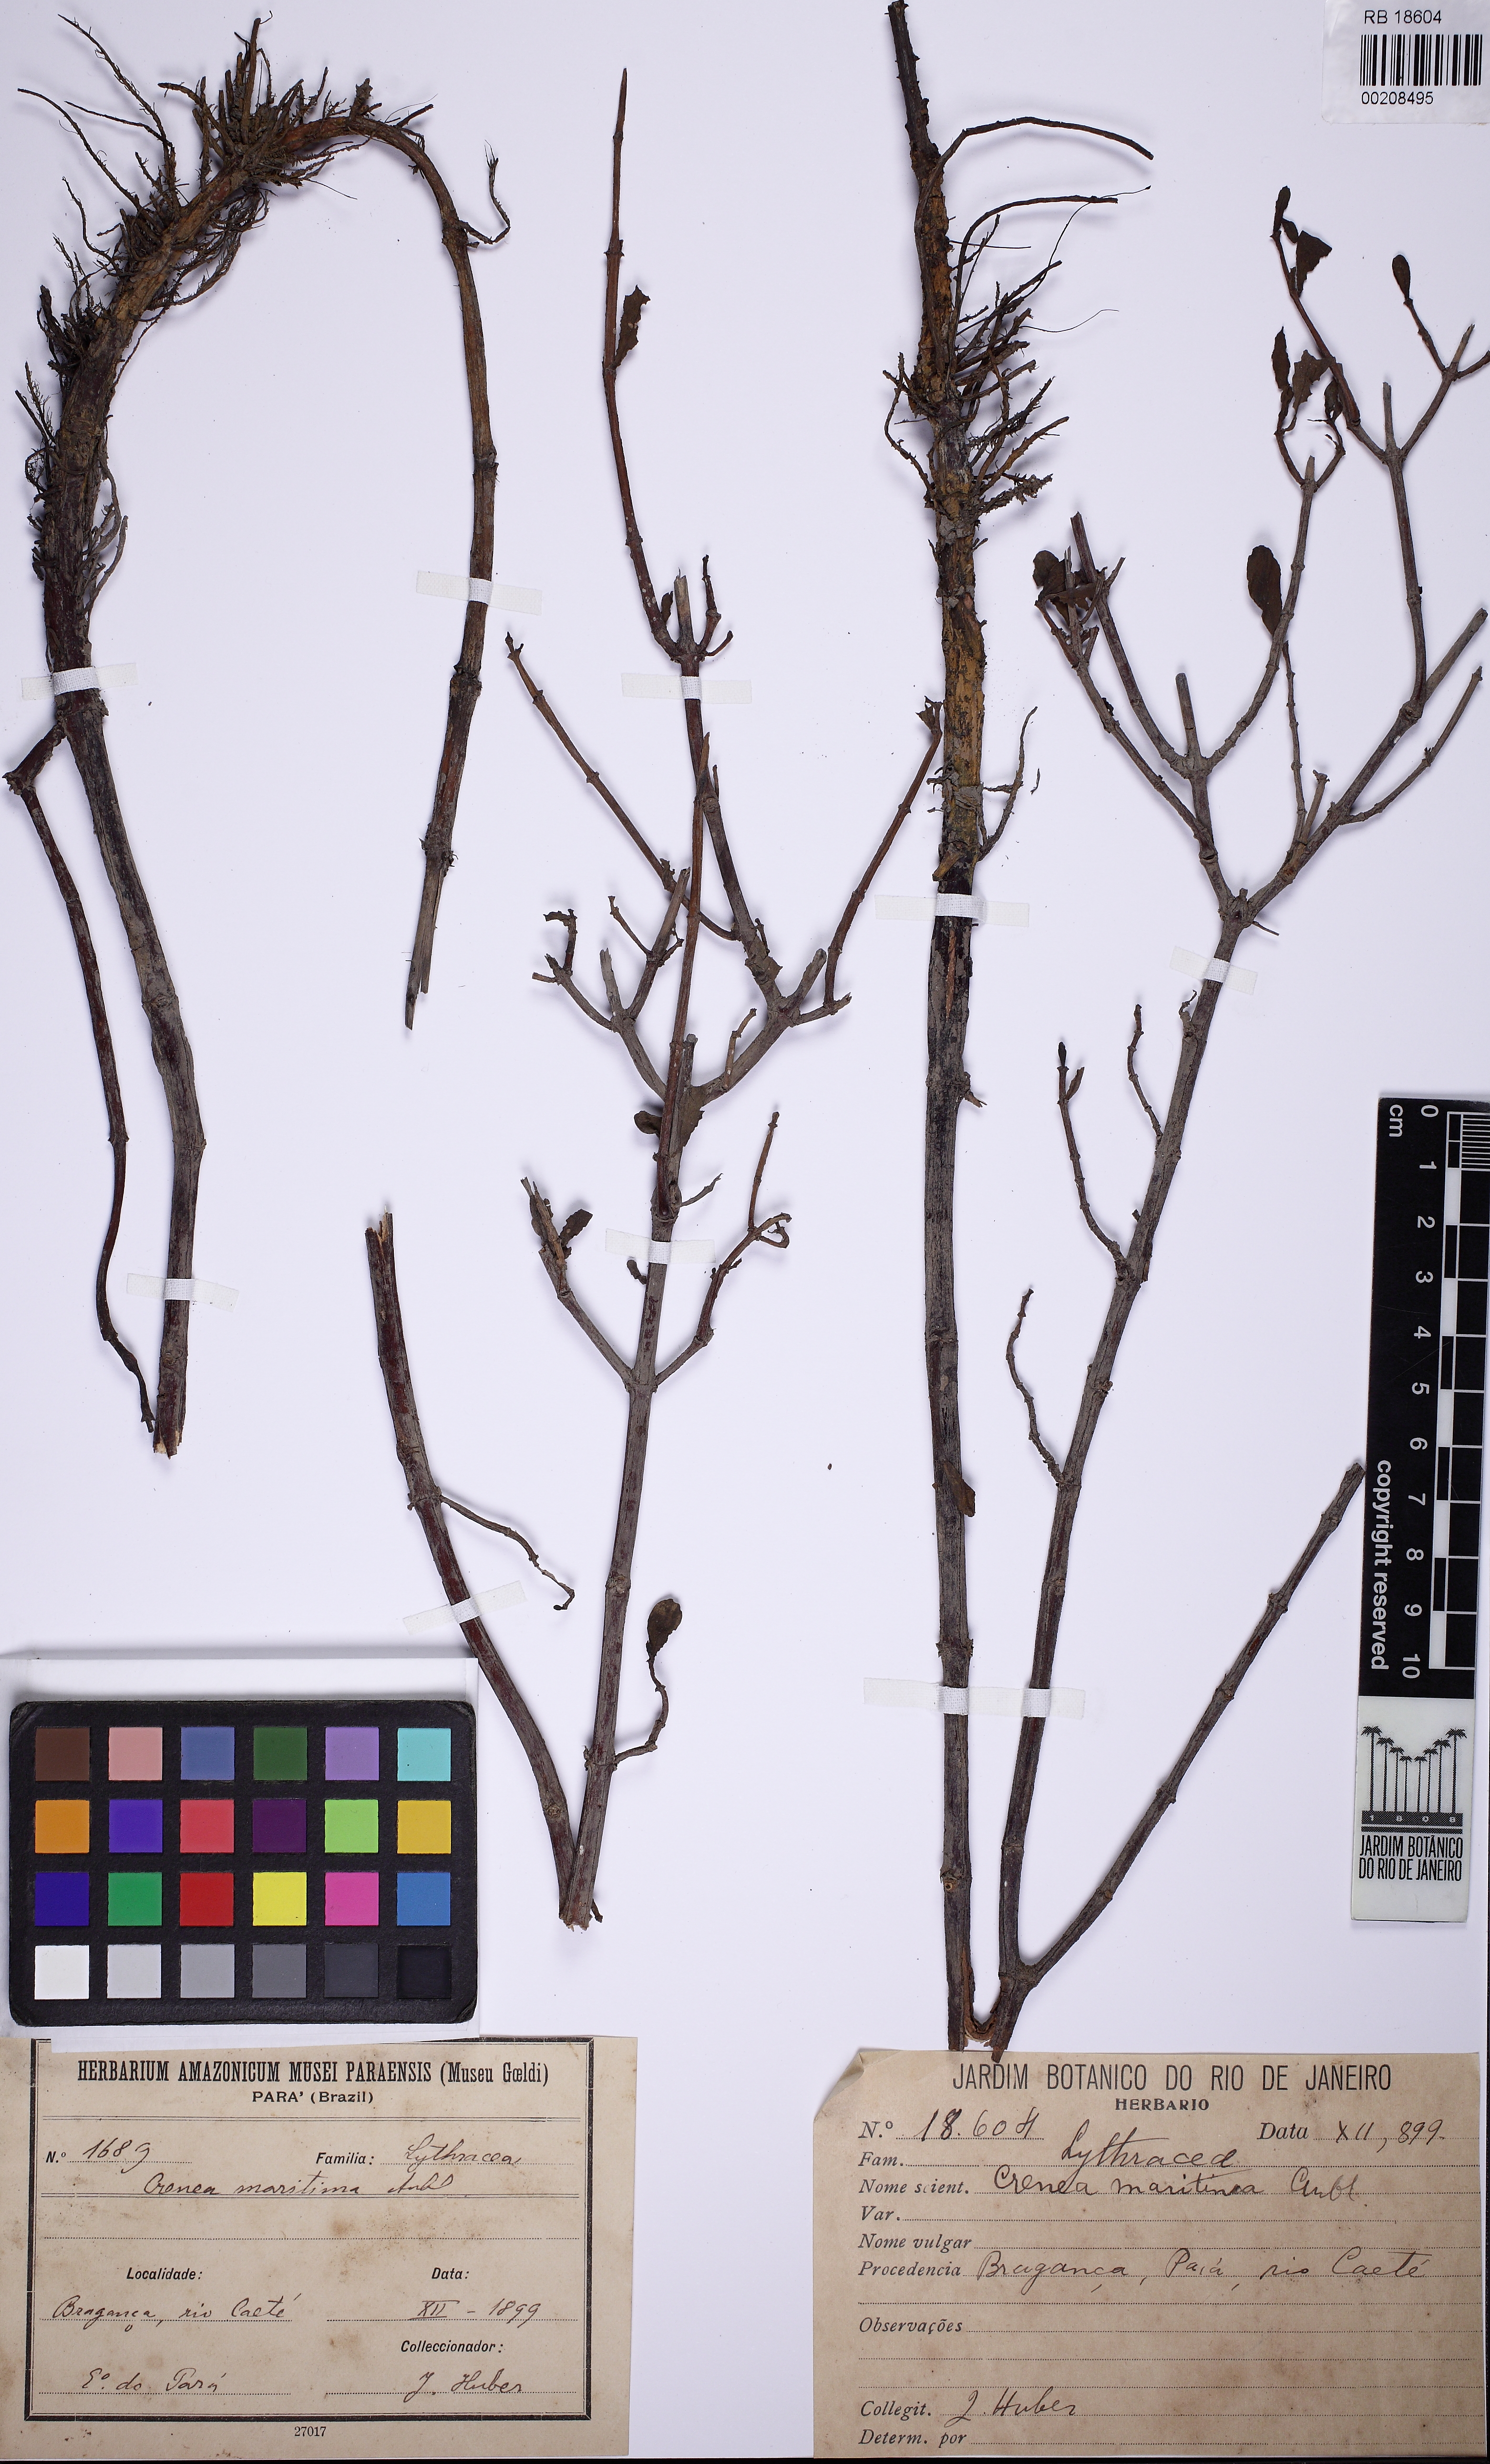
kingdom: Plantae
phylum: Tracheophyta
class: Magnoliopsida
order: Myrtales
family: Lythraceae
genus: Ammannia
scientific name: Ammannia maritima
